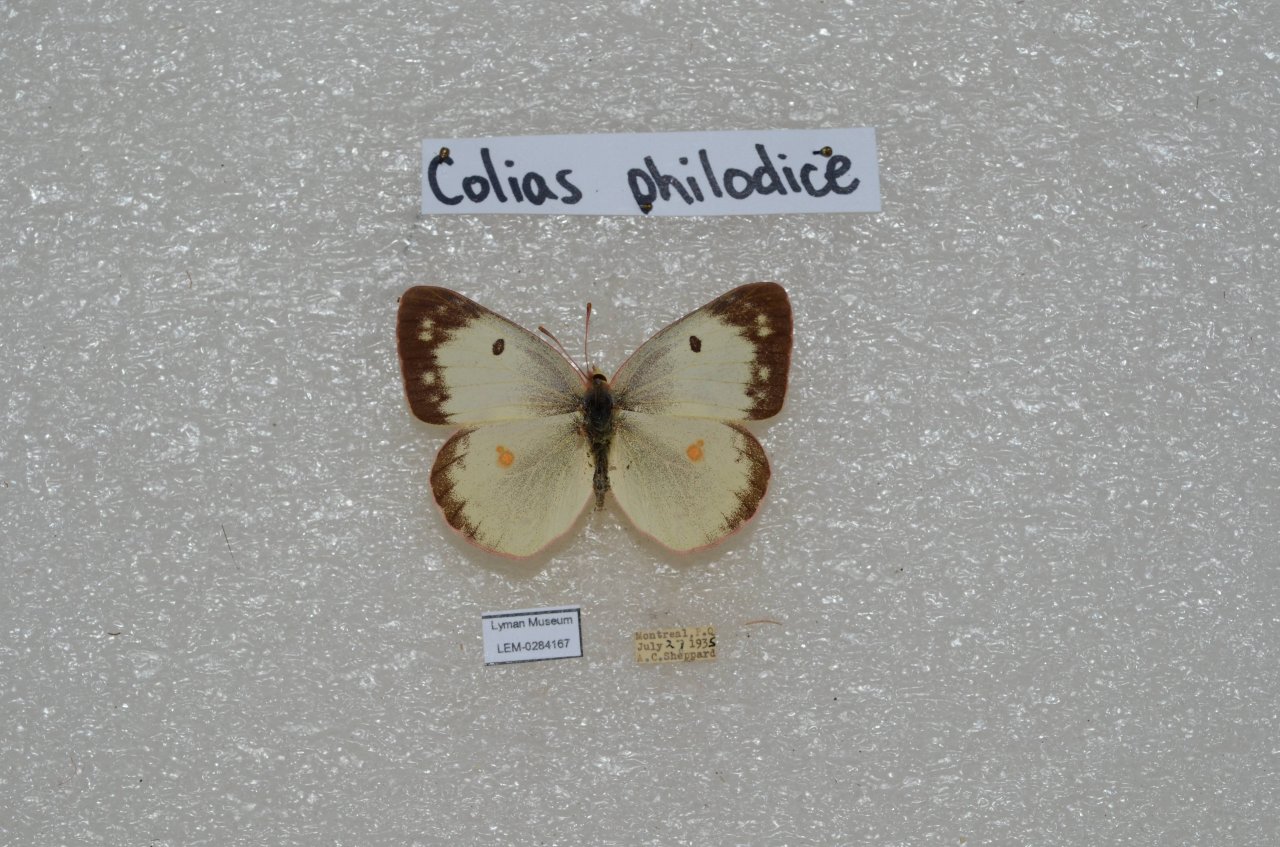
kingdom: Animalia
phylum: Arthropoda
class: Insecta
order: Lepidoptera
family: Pieridae
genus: Colias
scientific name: Colias philodice
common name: Clouded Sulphur
